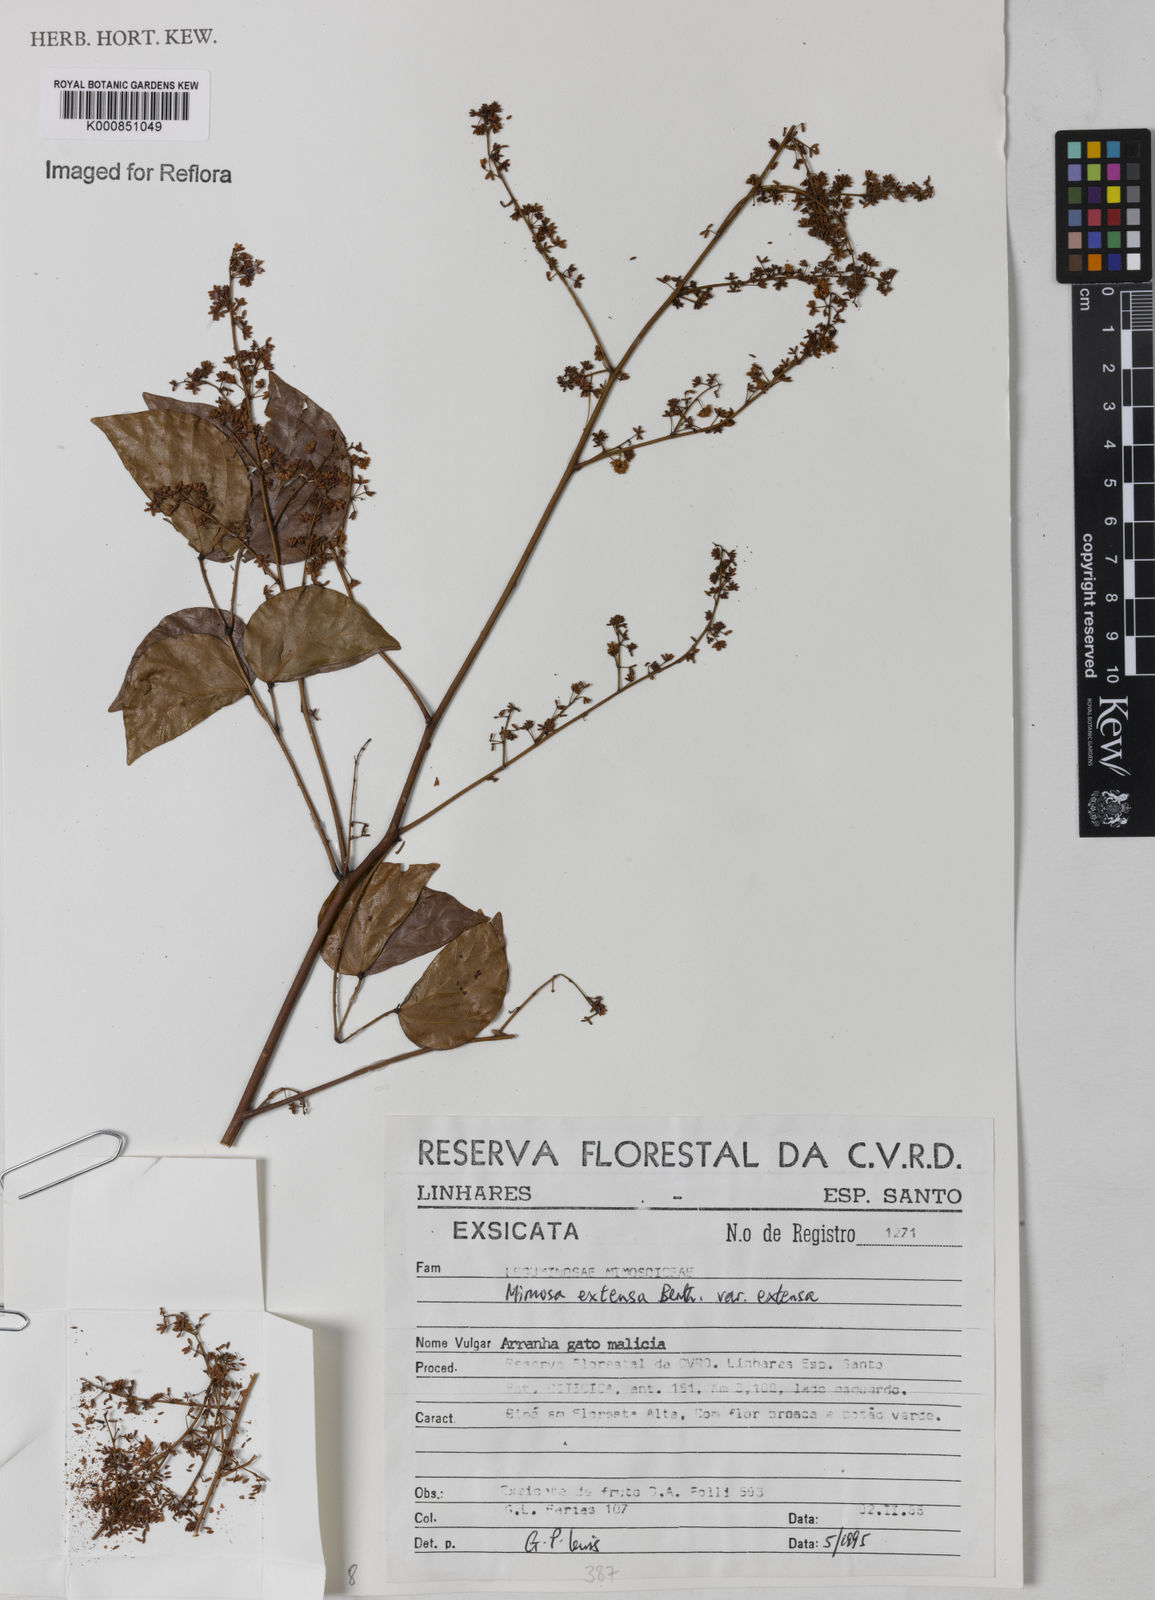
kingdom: Plantae
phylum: Tracheophyta
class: Magnoliopsida
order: Fabales
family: Fabaceae
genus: Mimosa
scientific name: Mimosa extensa
